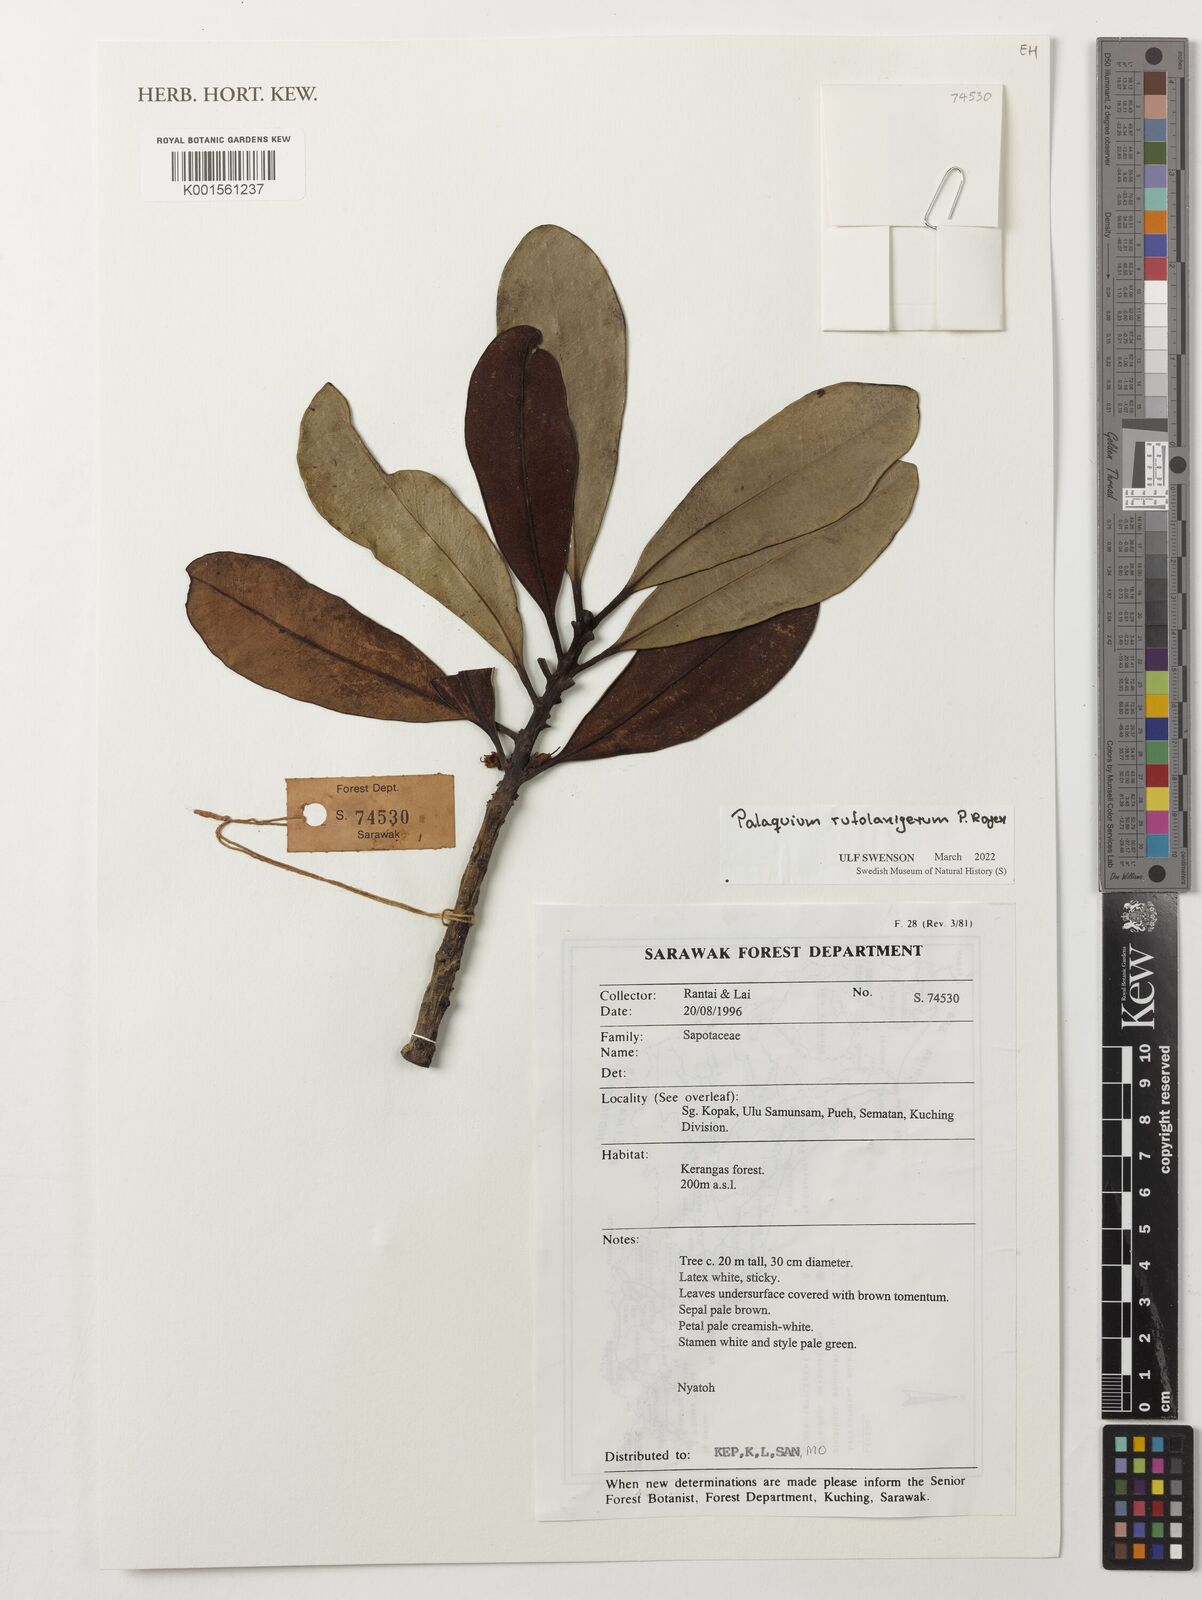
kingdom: Plantae
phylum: Tracheophyta
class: Magnoliopsida
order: Ericales
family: Sapotaceae
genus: Palaquium
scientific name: Palaquium rufolanigerum
